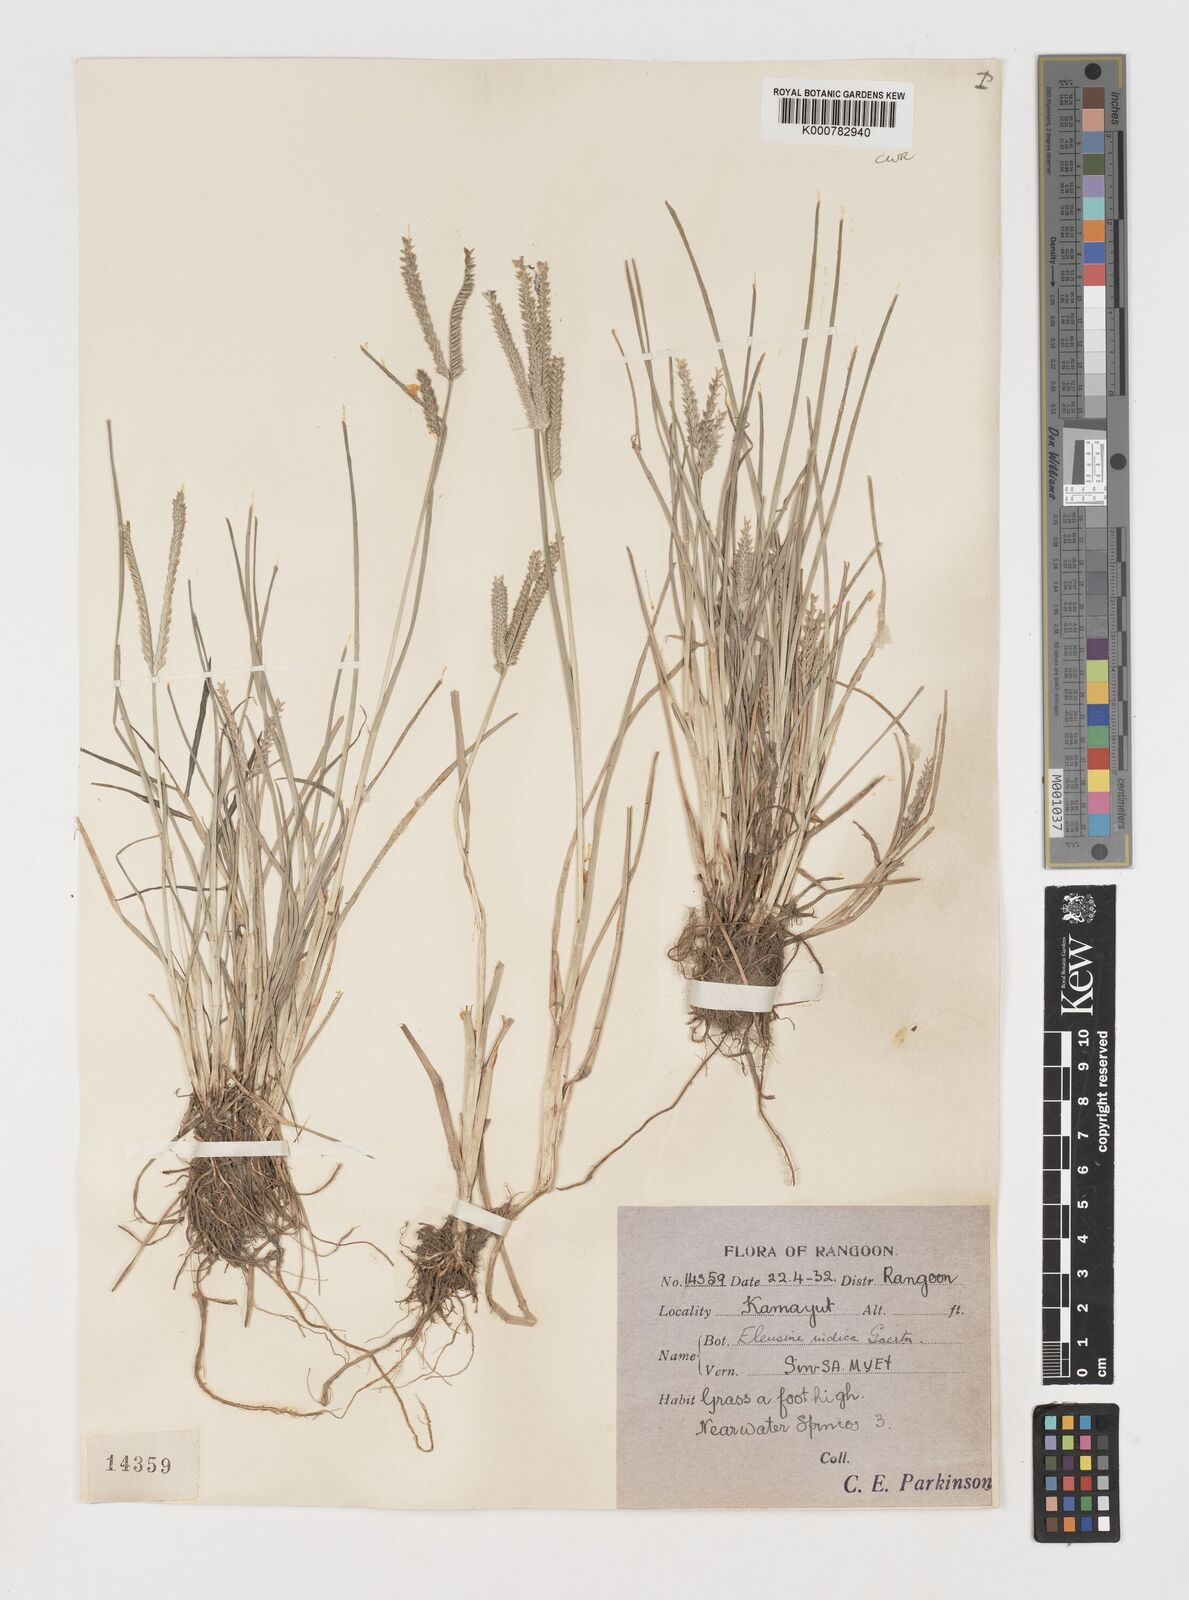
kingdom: Plantae
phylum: Tracheophyta
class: Liliopsida
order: Poales
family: Poaceae
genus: Eleusine
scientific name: Eleusine indica
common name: Yard-grass
